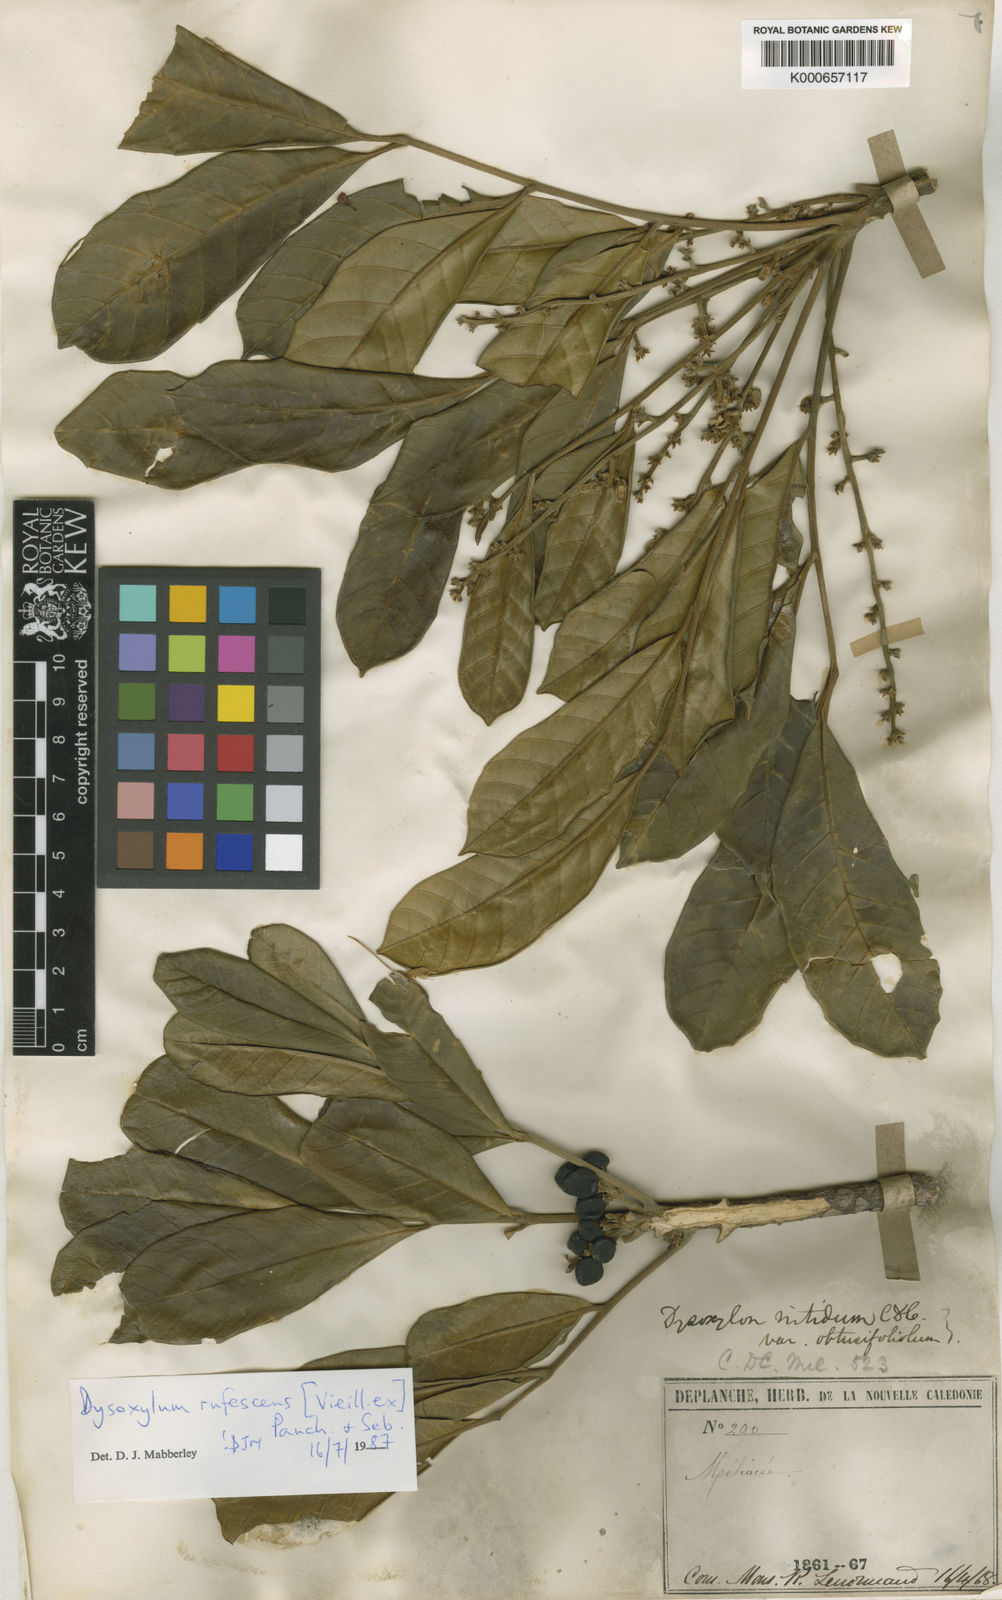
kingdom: Plantae
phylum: Tracheophyta
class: Magnoliopsida
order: Sapindales
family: Meliaceae
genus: Didymocheton
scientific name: Didymocheton rufescens
